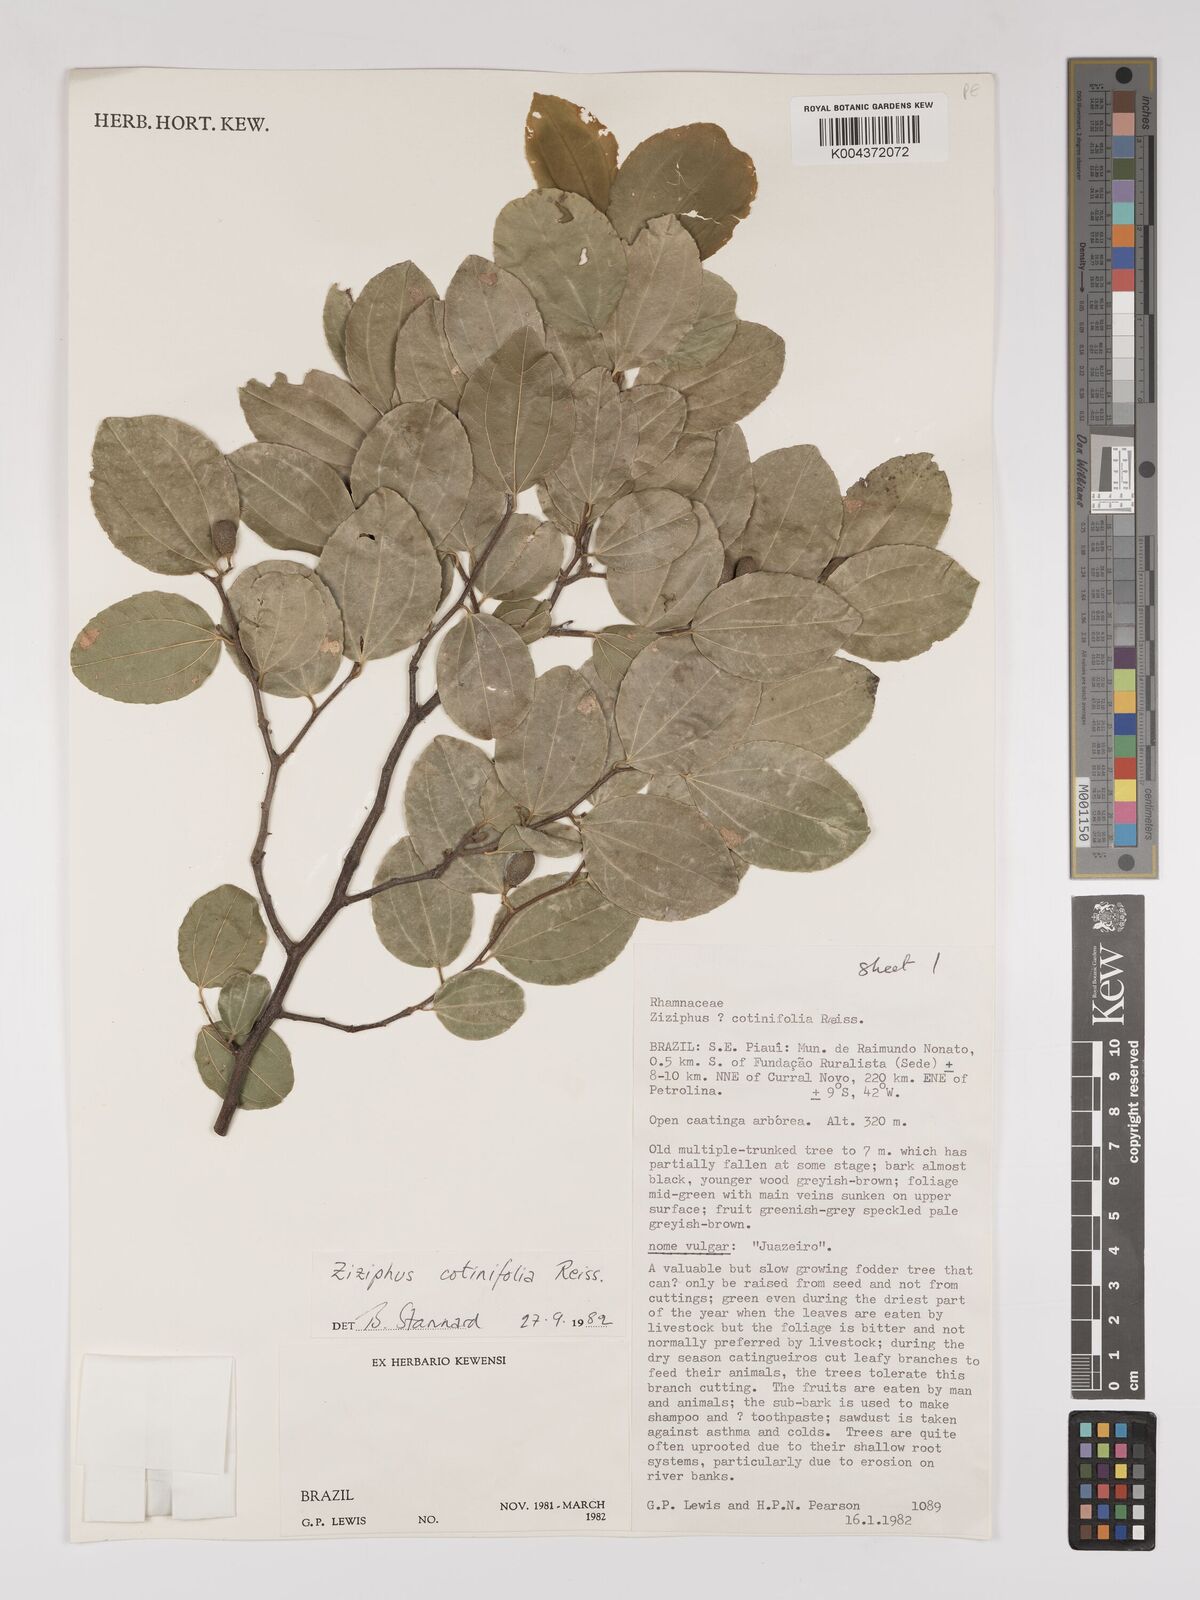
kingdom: Plantae
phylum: Tracheophyta
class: Magnoliopsida
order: Rosales
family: Rhamnaceae
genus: Sarcomphalus
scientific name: Sarcomphalus cotinifolius
